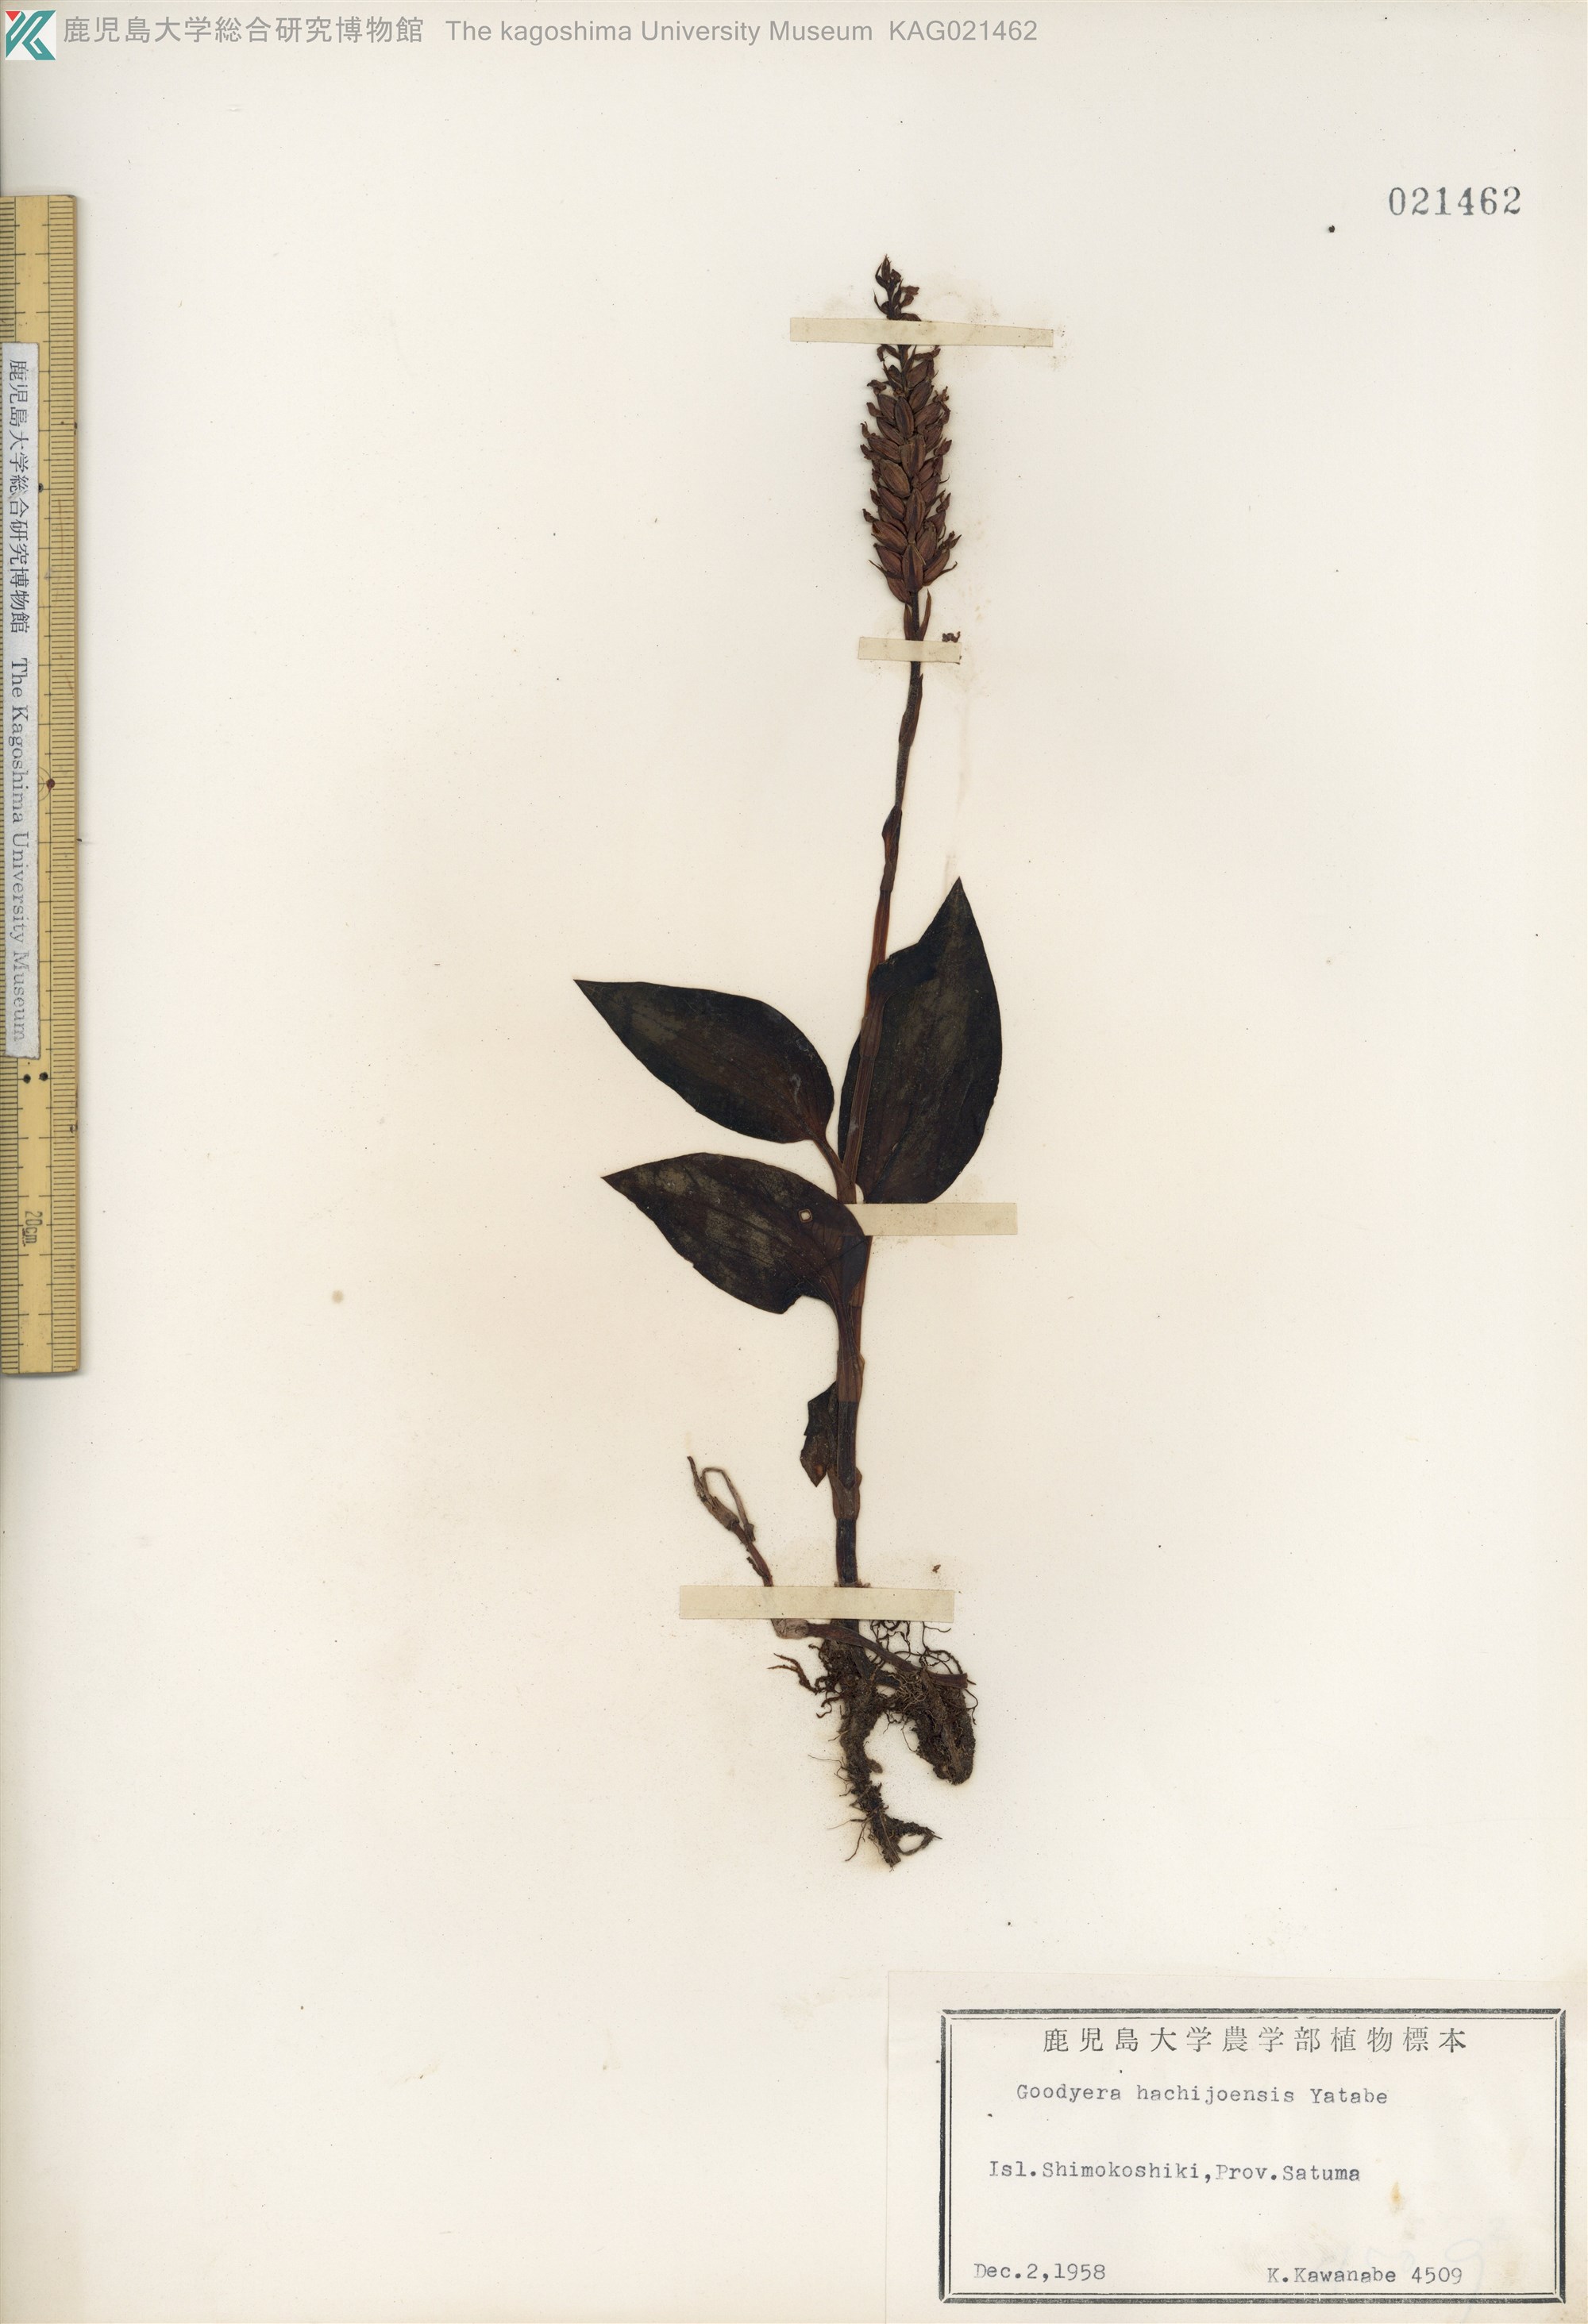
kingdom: Plantae
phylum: Tracheophyta
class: Liliopsida
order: Asparagales
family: Orchidaceae
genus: Goodyera
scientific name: Goodyera hachijoensis
